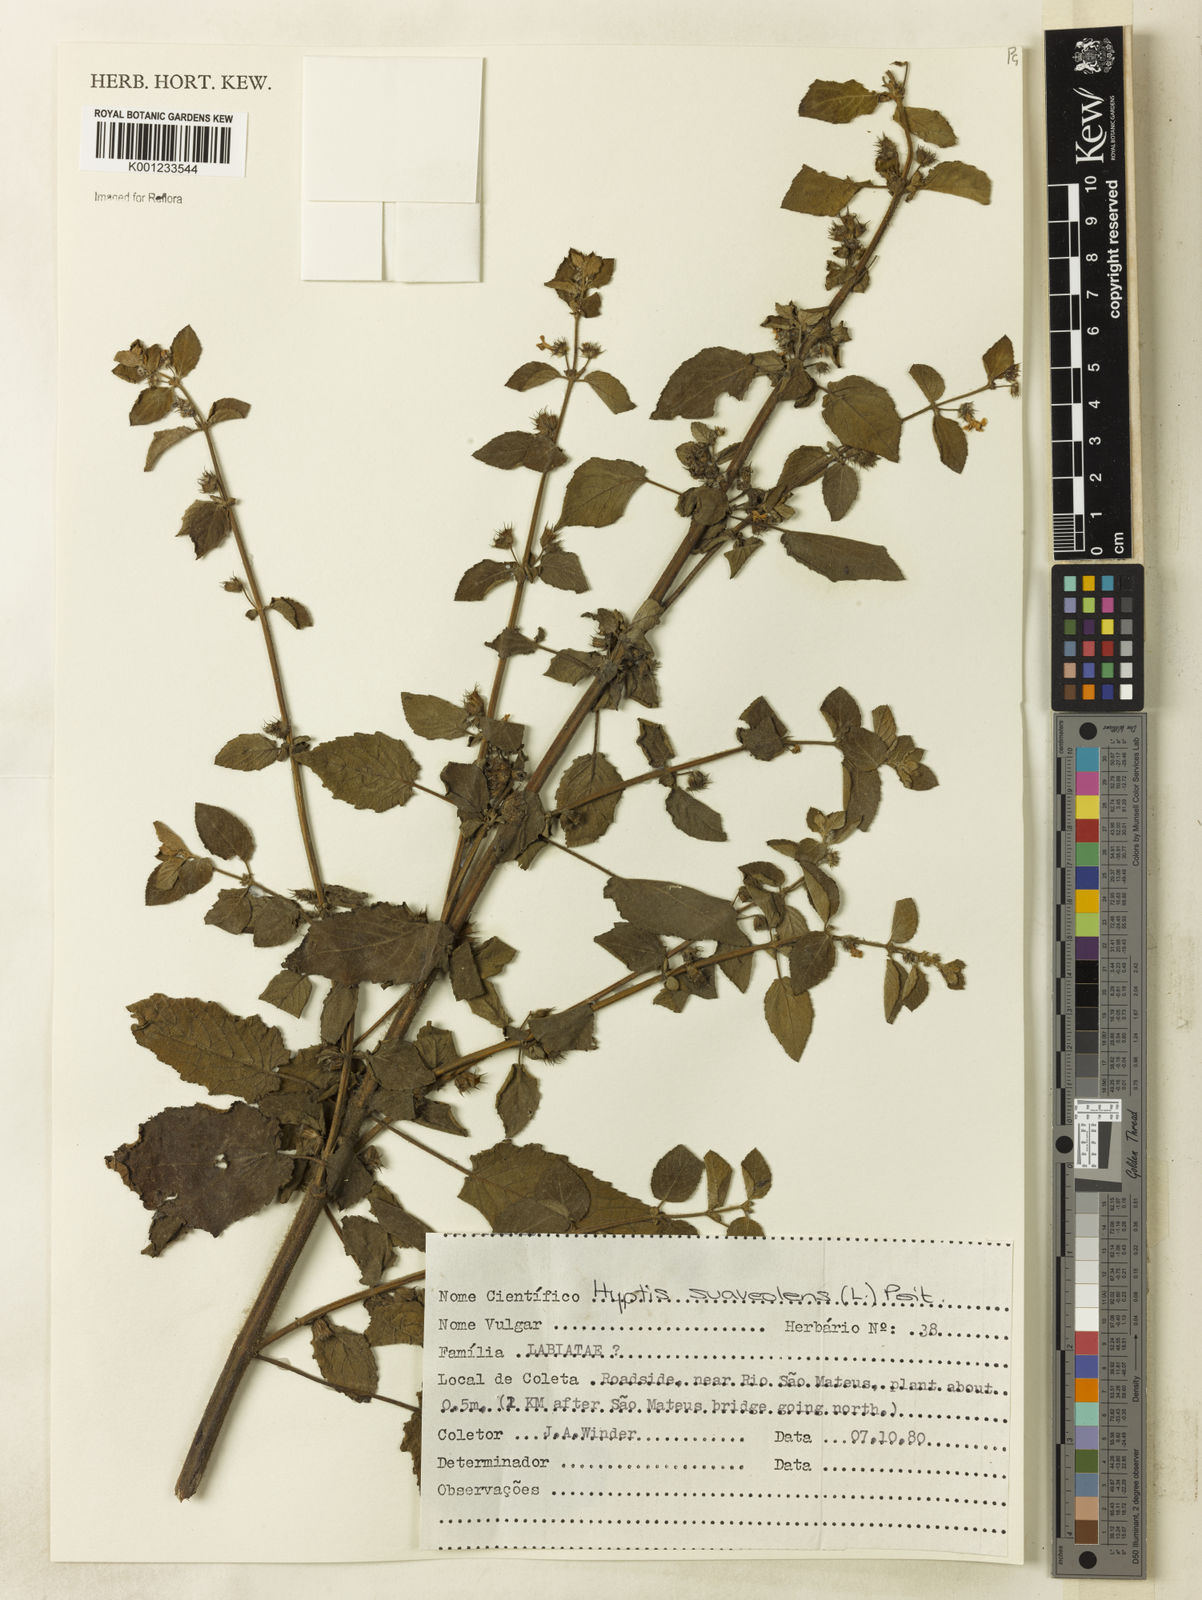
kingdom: Plantae
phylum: Tracheophyta
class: Magnoliopsida
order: Lamiales
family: Lamiaceae
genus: Mesosphaerum
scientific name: Mesosphaerum suaveolens
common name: Pignut
